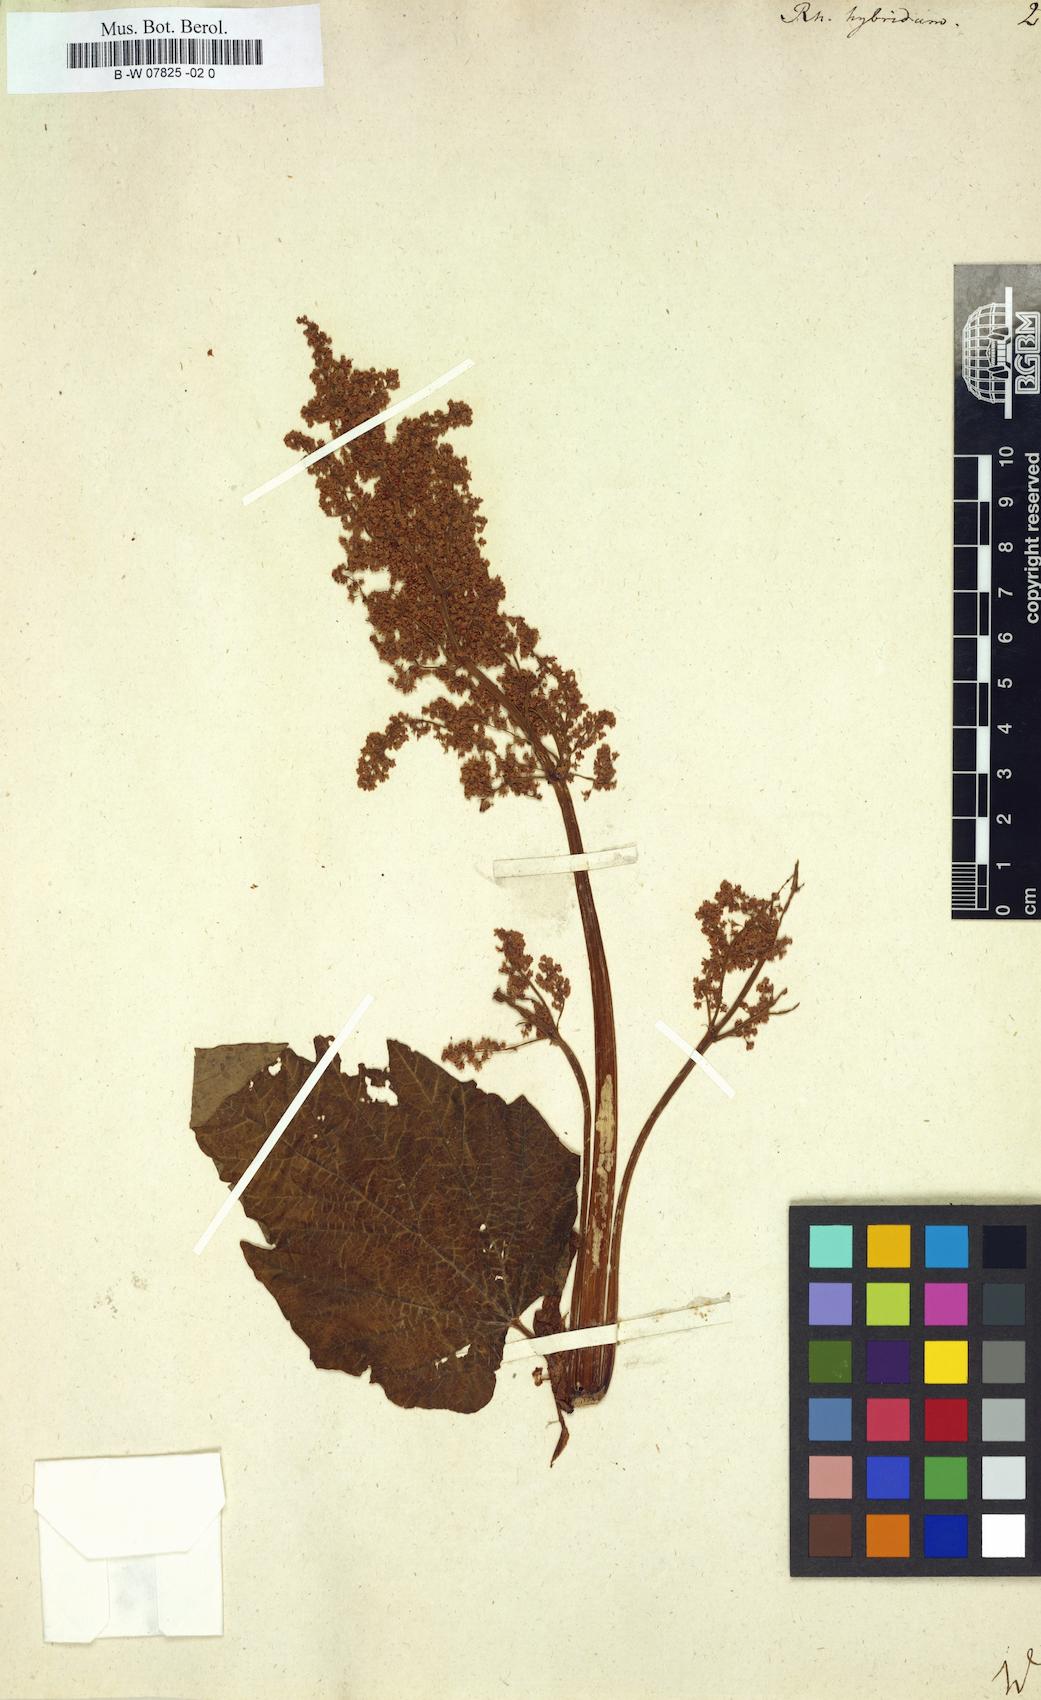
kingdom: Plantae
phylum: Tracheophyta
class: Magnoliopsida
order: Caryophyllales
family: Polygonaceae
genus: Rheum
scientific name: Rheum hybridum
